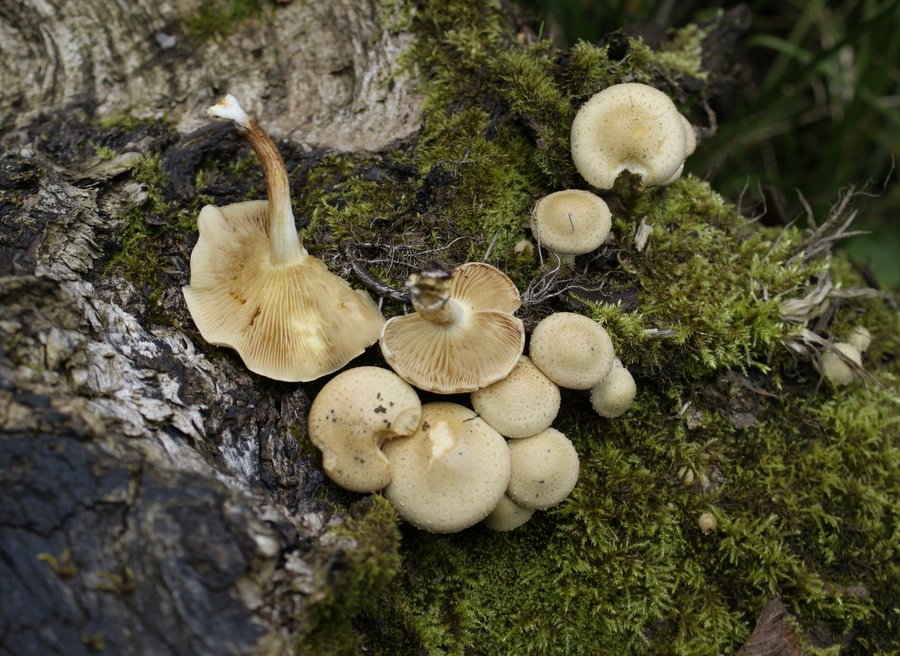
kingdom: Fungi
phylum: Basidiomycota
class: Agaricomycetes
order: Agaricales
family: Strophariaceae
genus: Pholiota
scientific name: Pholiota gummosa
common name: grøngul skælhat
